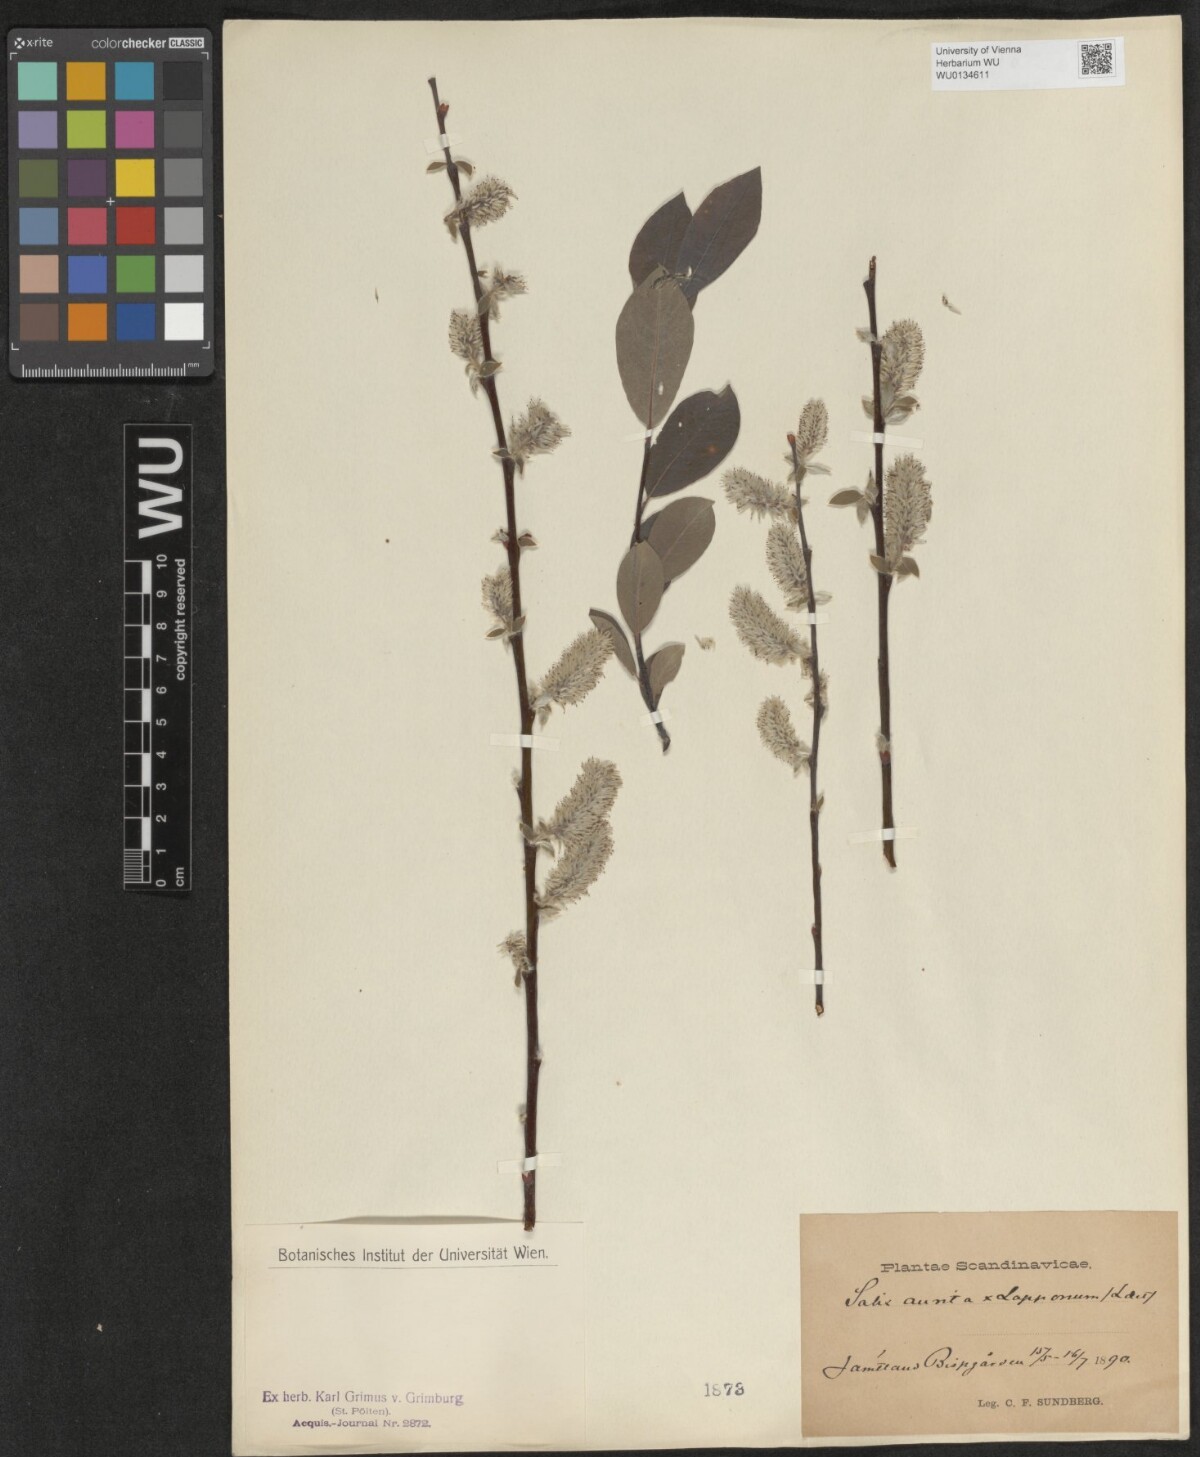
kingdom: Plantae
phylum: Tracheophyta
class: Magnoliopsida
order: Malpighiales
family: Salicaceae
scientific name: Salicaceae
